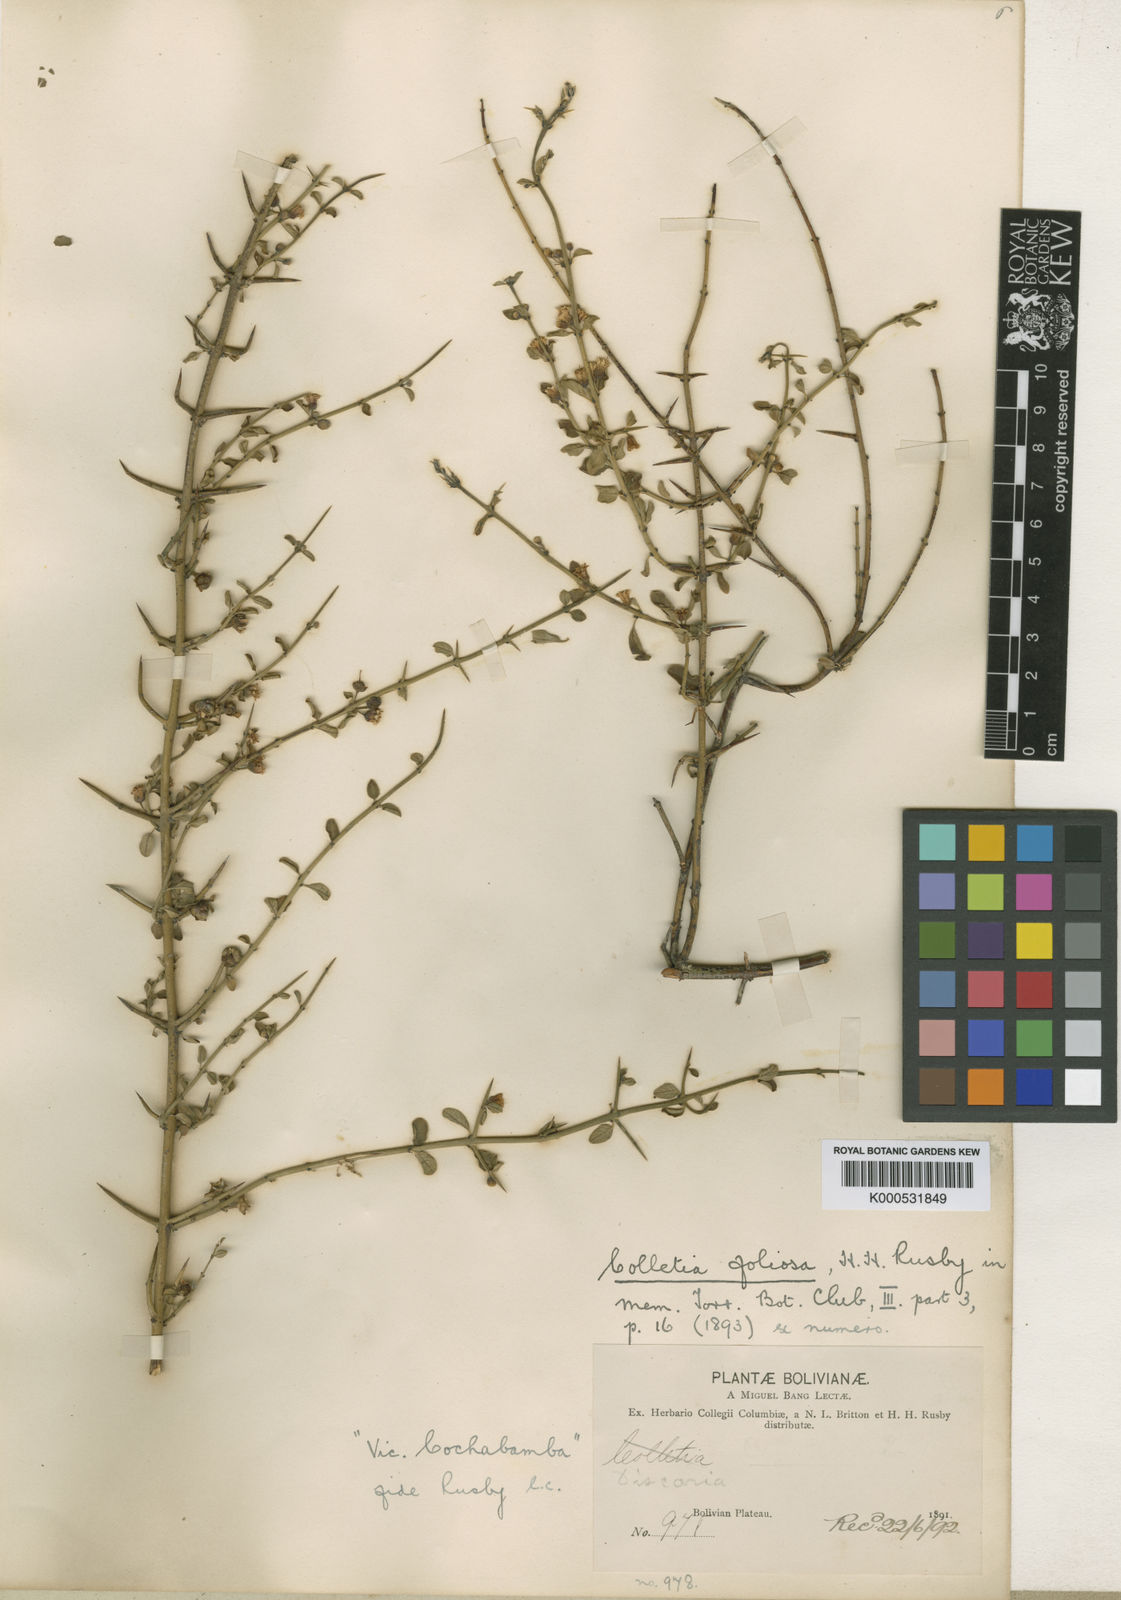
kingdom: Plantae
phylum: Tracheophyta
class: Magnoliopsida
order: Rosales
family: Rhamnaceae
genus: Kentrothamnus
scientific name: Kentrothamnus weddellianus
